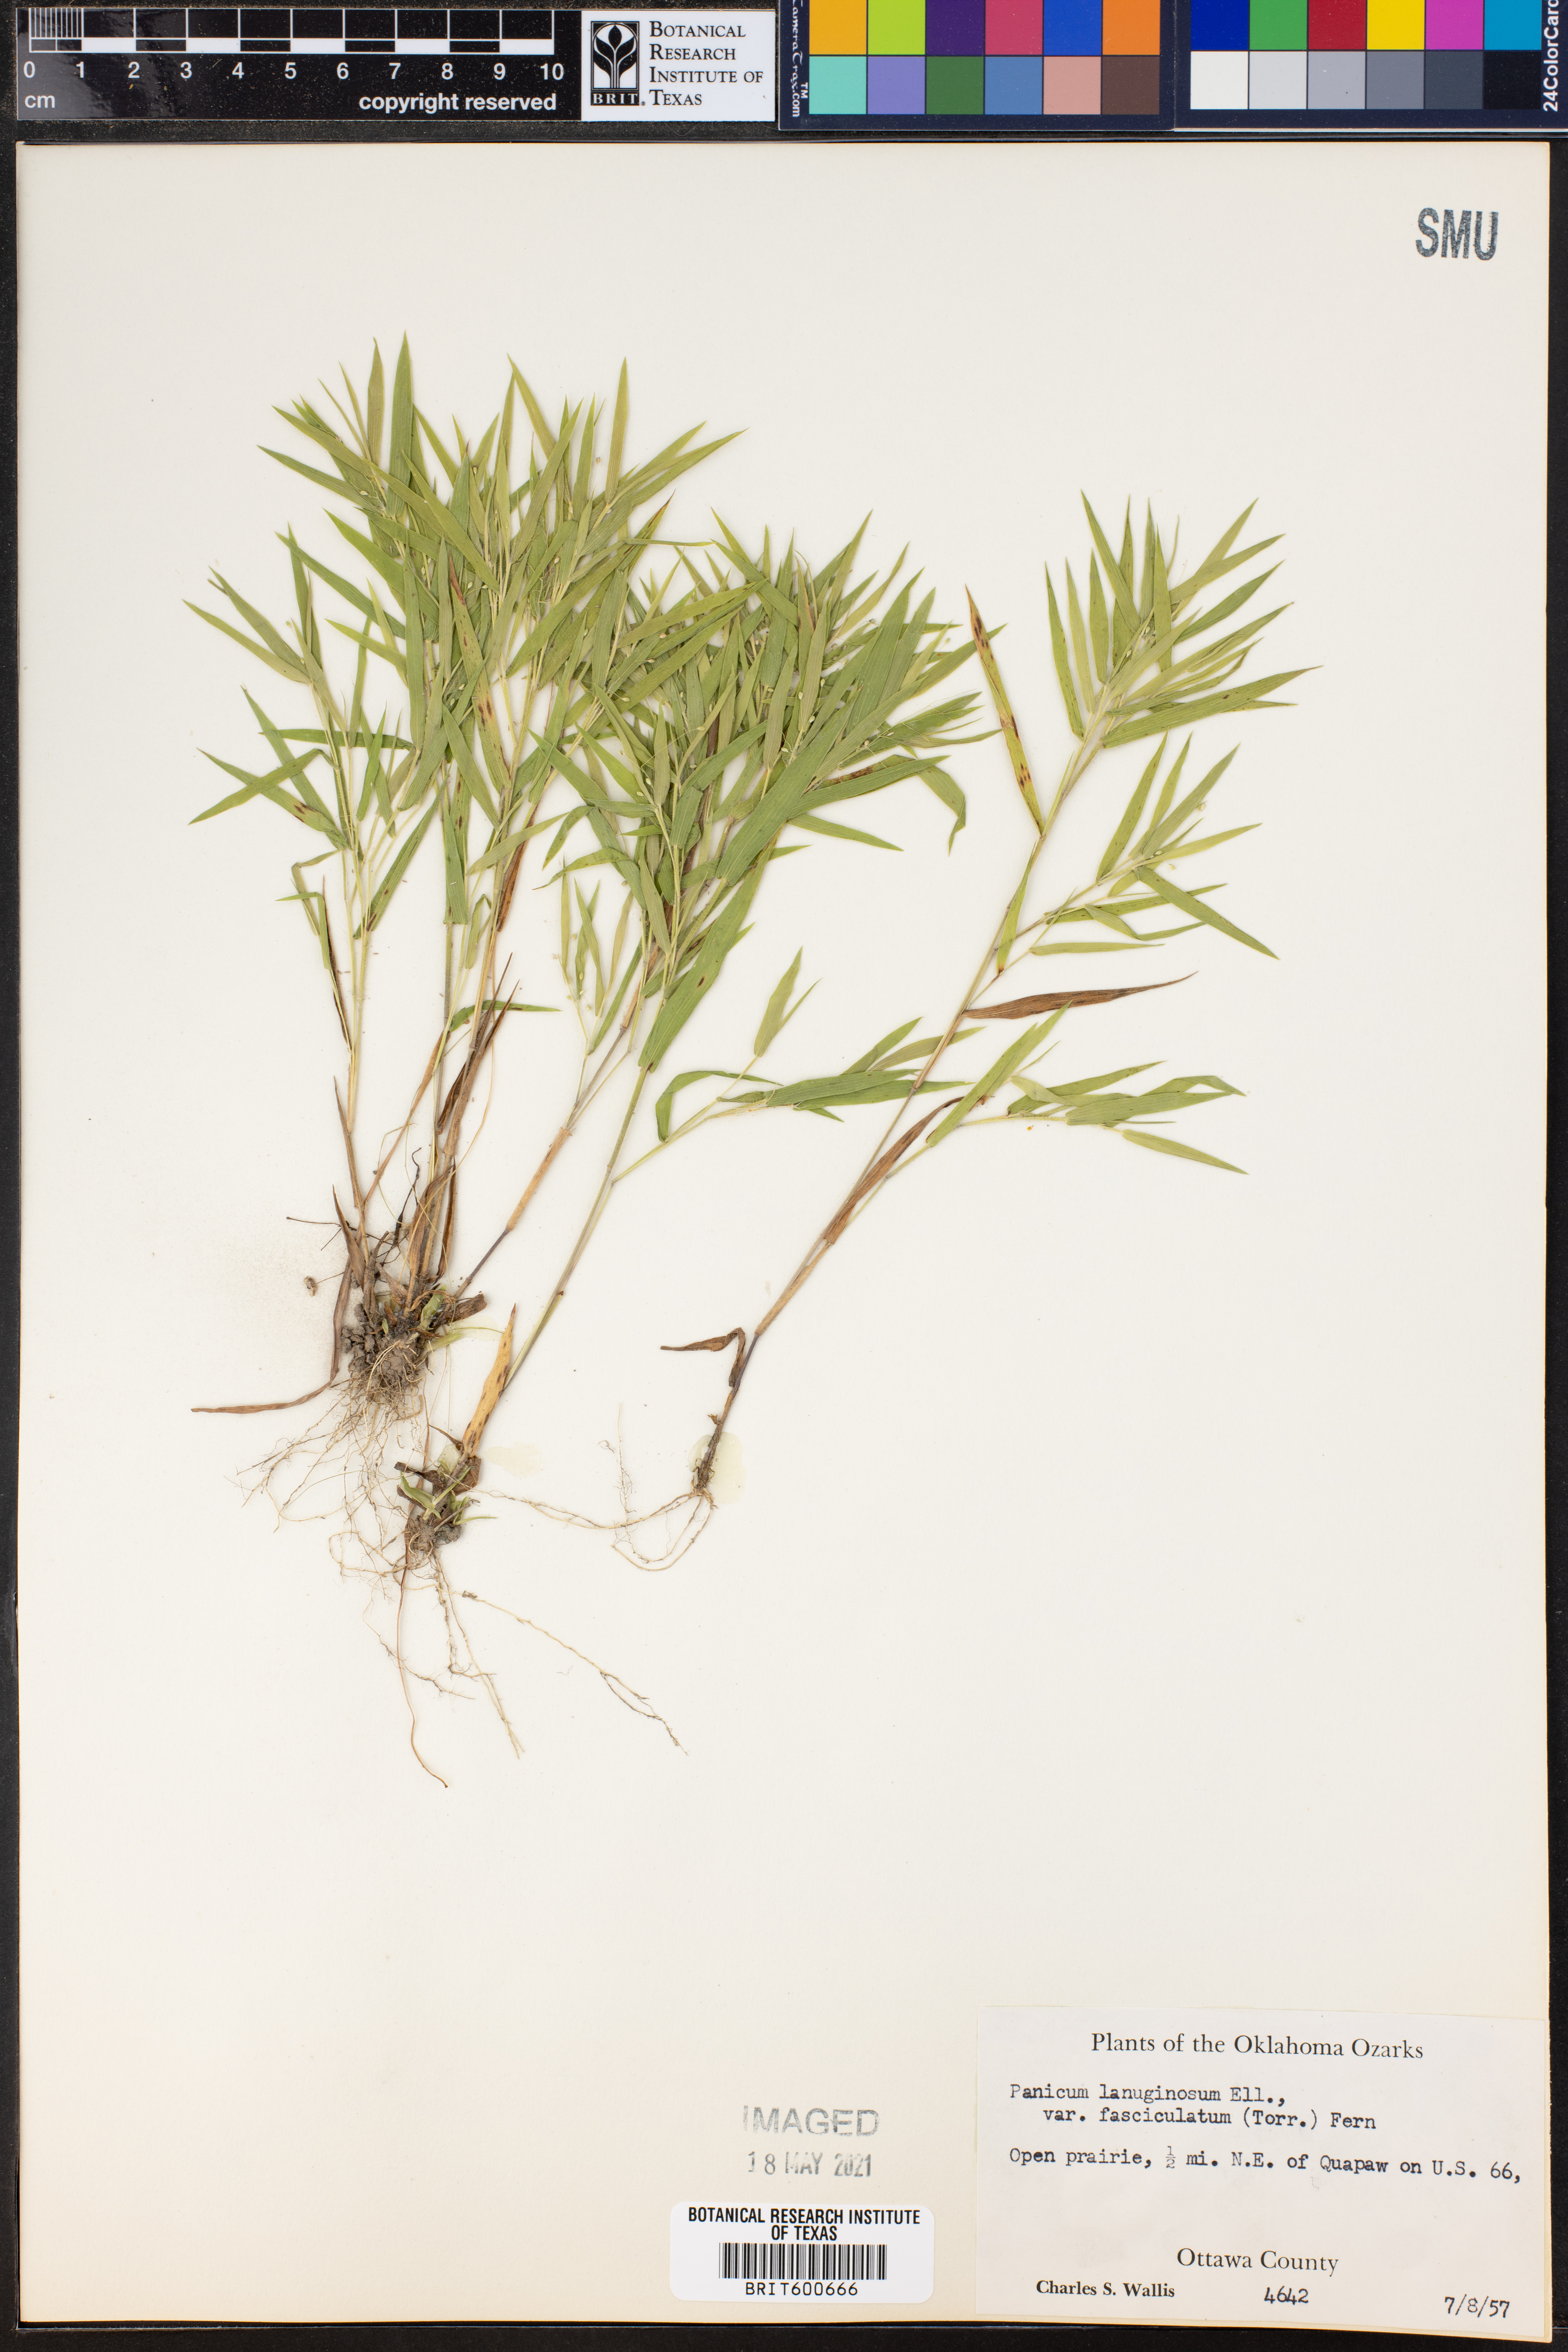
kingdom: Plantae
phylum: Tracheophyta
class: Liliopsida
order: Poales
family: Poaceae
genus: Dichanthelium
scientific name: Dichanthelium lanuginosum
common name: Woolly panicgrass
